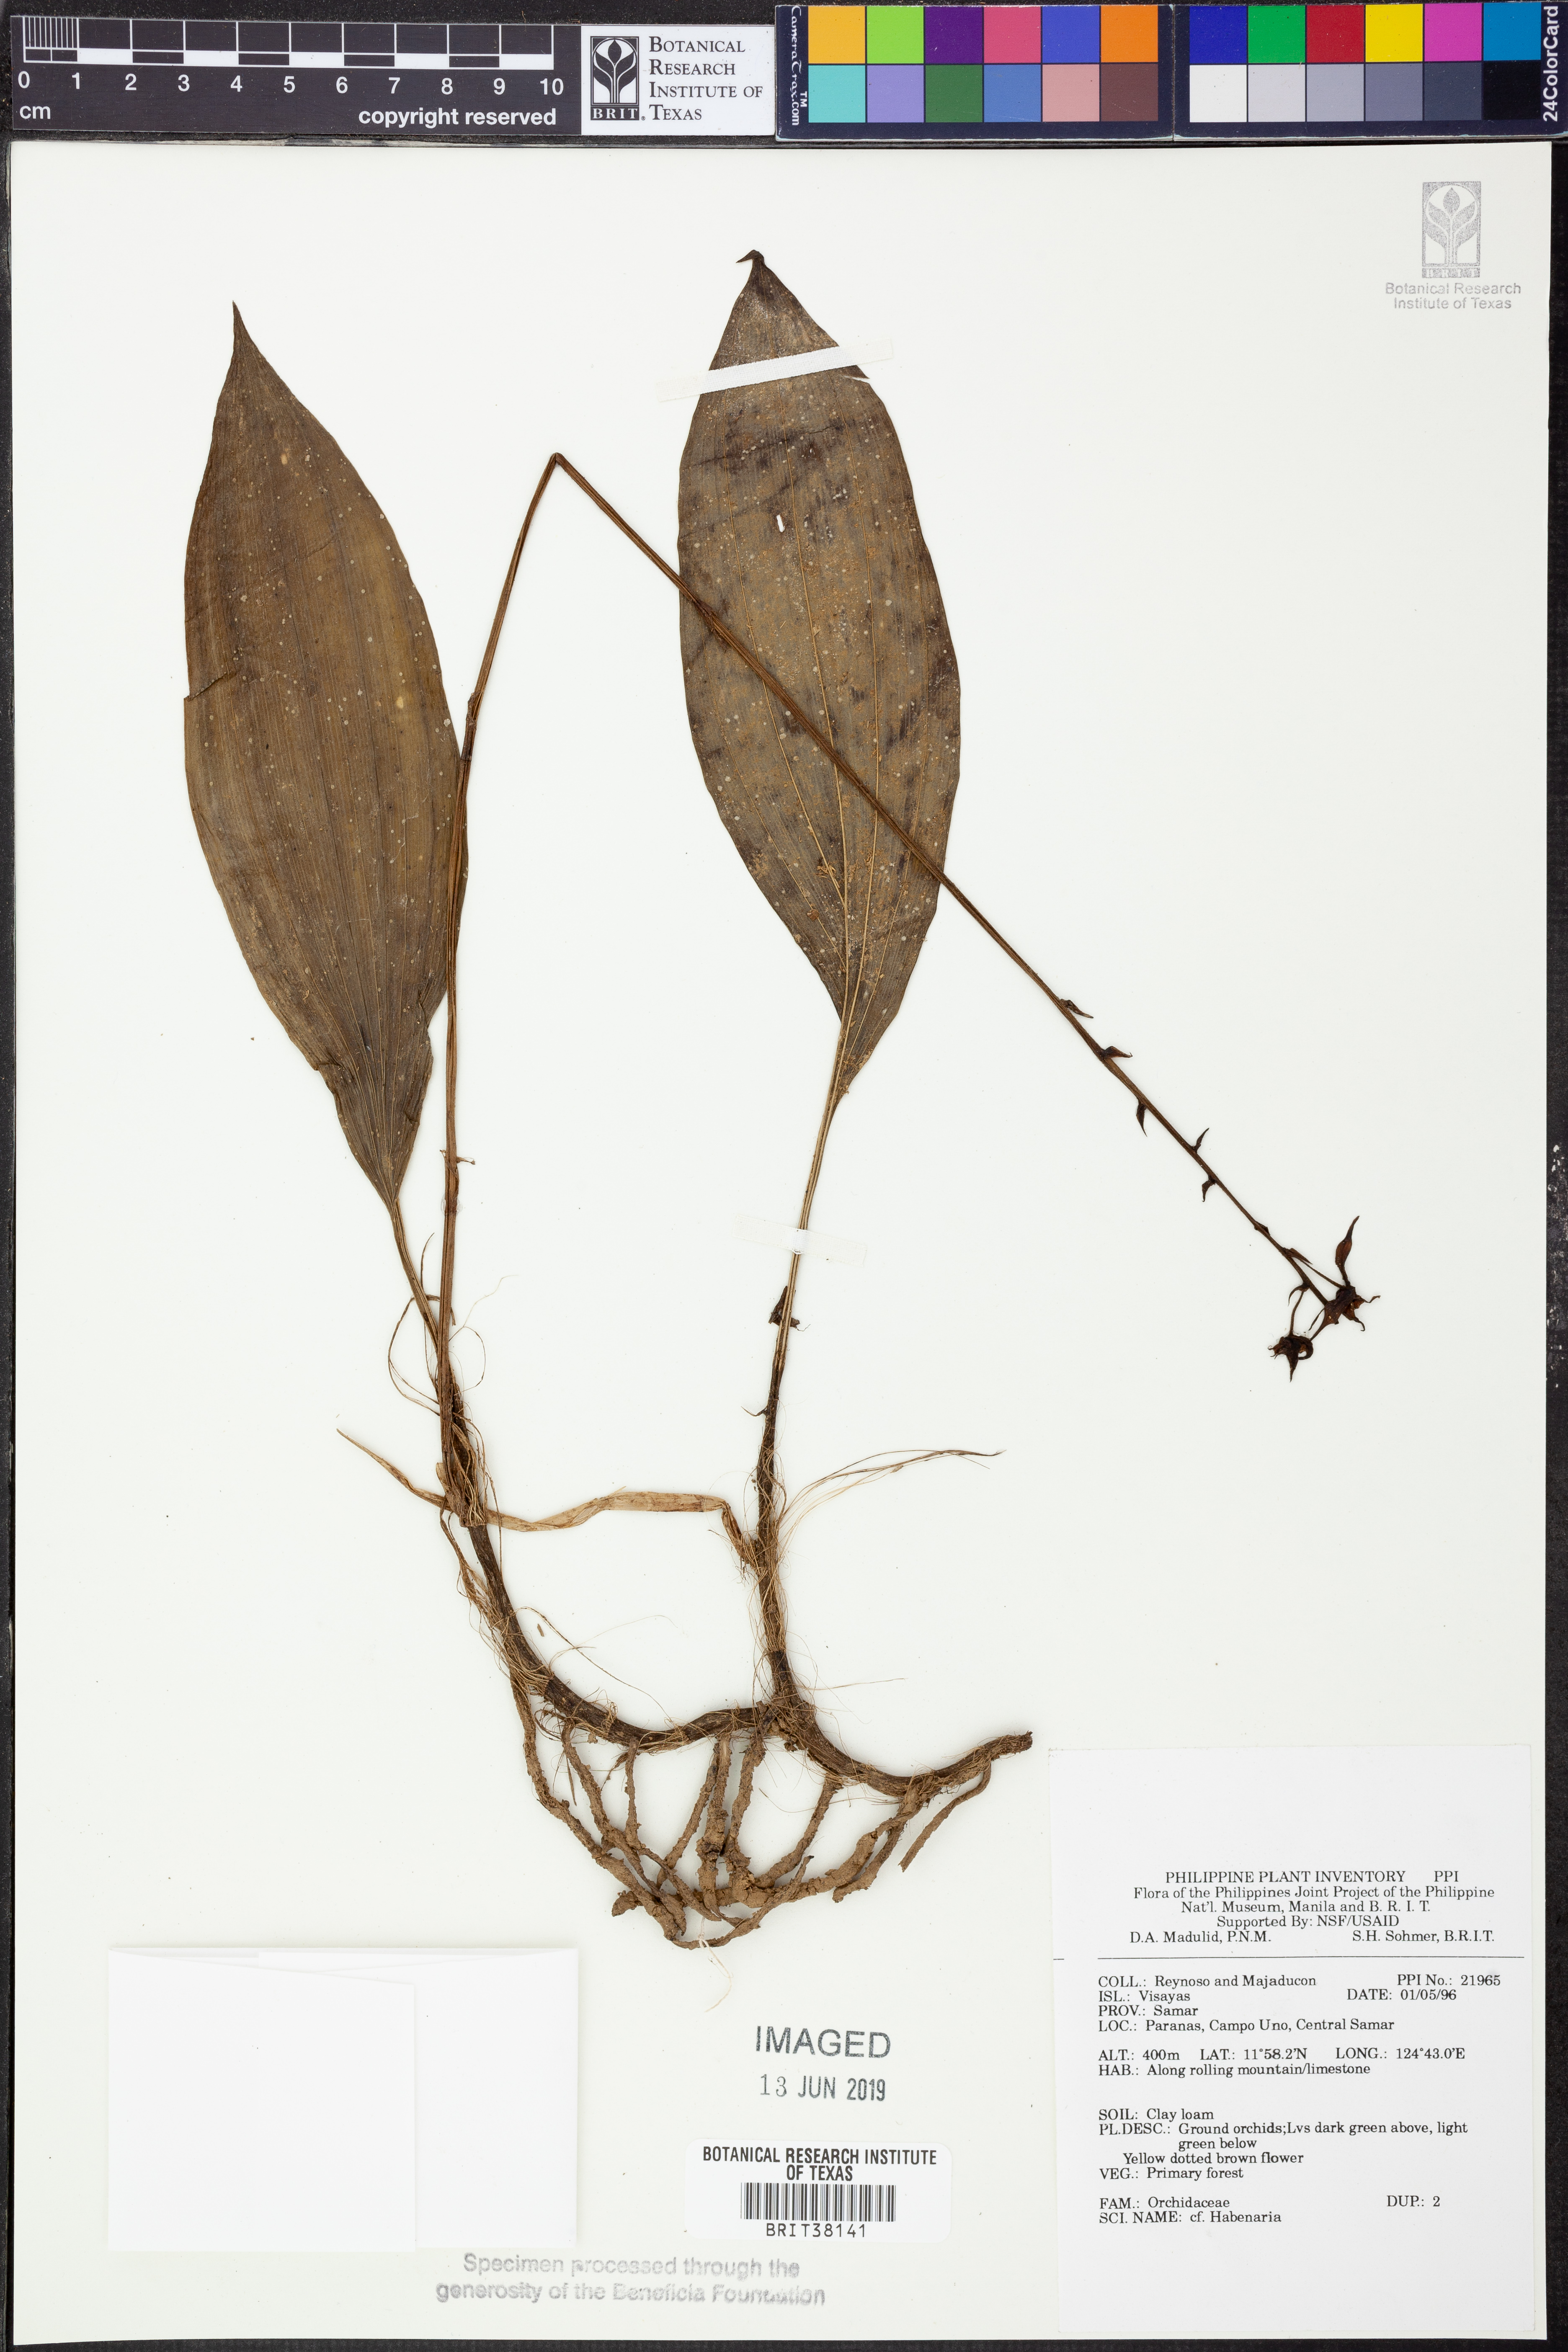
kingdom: Plantae
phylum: Tracheophyta
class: Liliopsida
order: Asparagales
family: Orchidaceae
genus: Habenaria
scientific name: Habenaria
